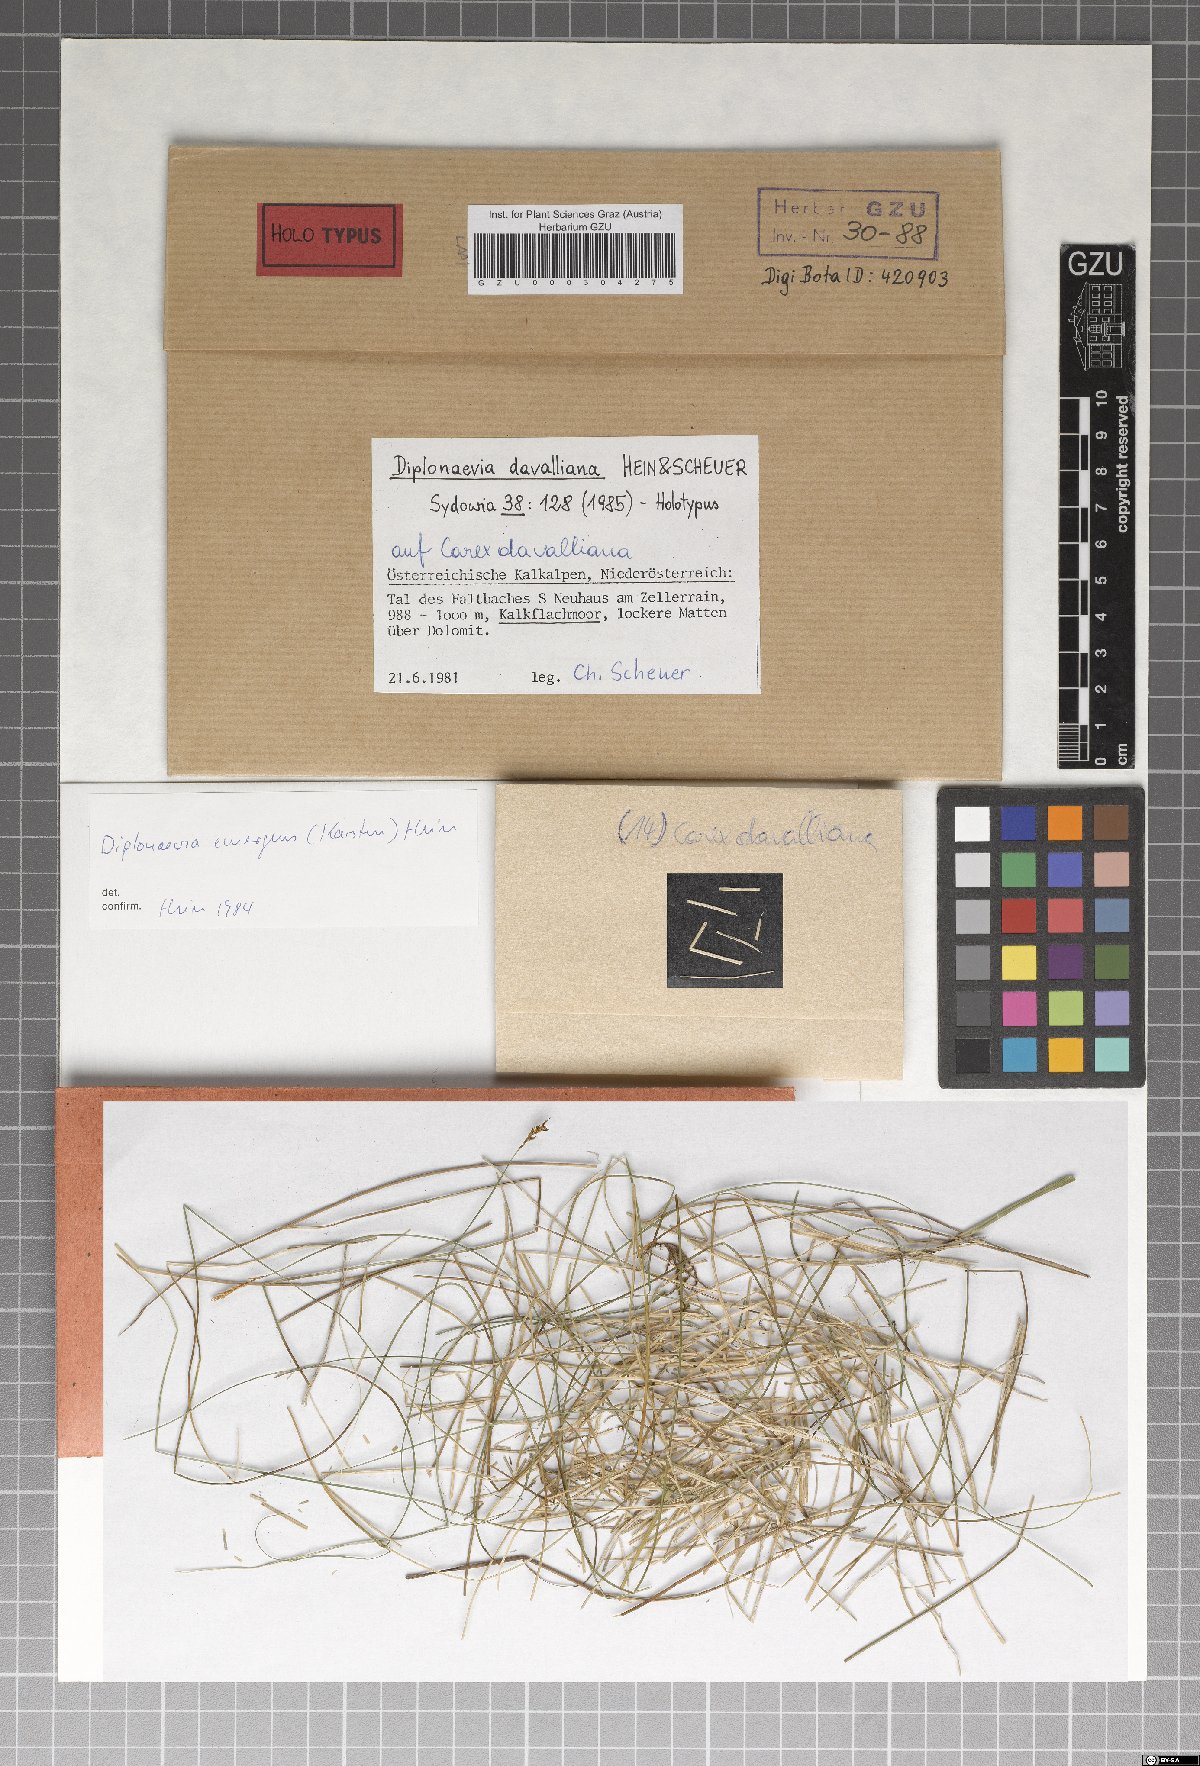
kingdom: Fungi
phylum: Ascomycota
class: Leotiomycetes
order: Helotiales
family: Calloriaceae
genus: Diplonaevia
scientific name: Diplonaevia davalliana
